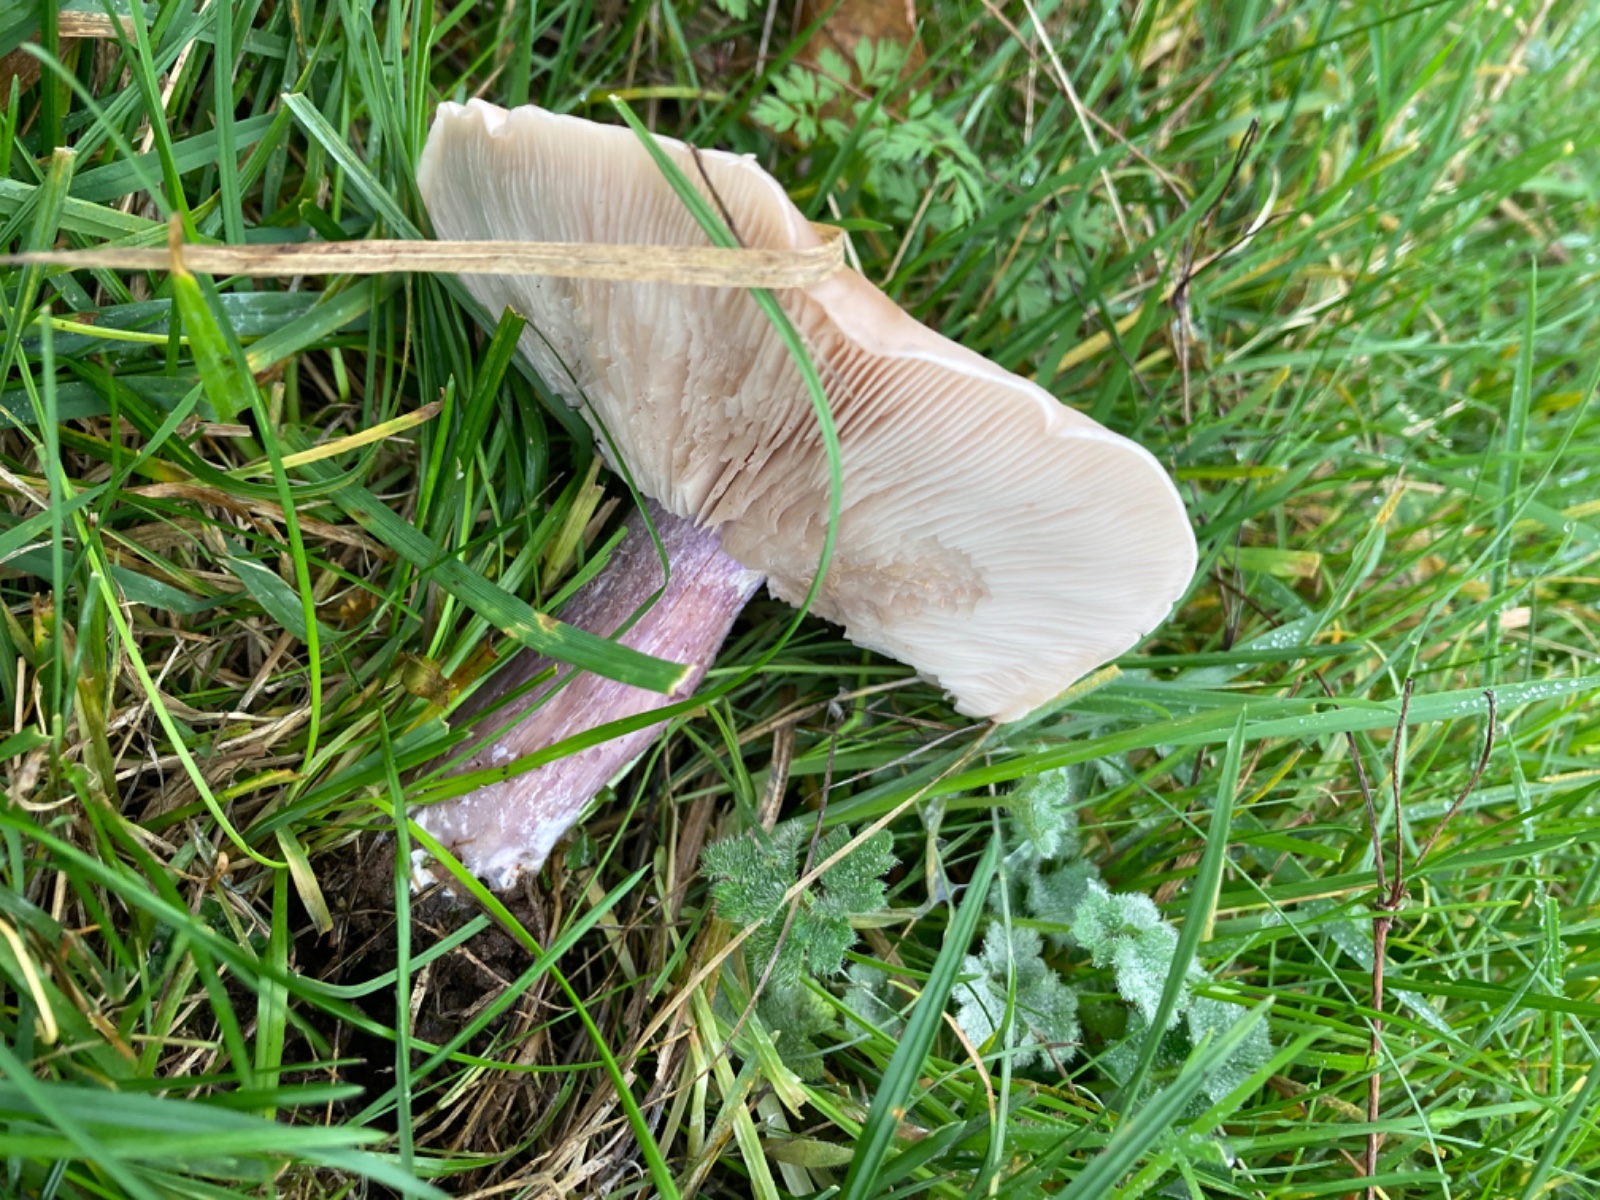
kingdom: Fungi
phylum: Basidiomycota
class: Agaricomycetes
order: Agaricales
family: Tricholomataceae
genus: Lepista
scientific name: Lepista personata
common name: bleg hekseringshat
